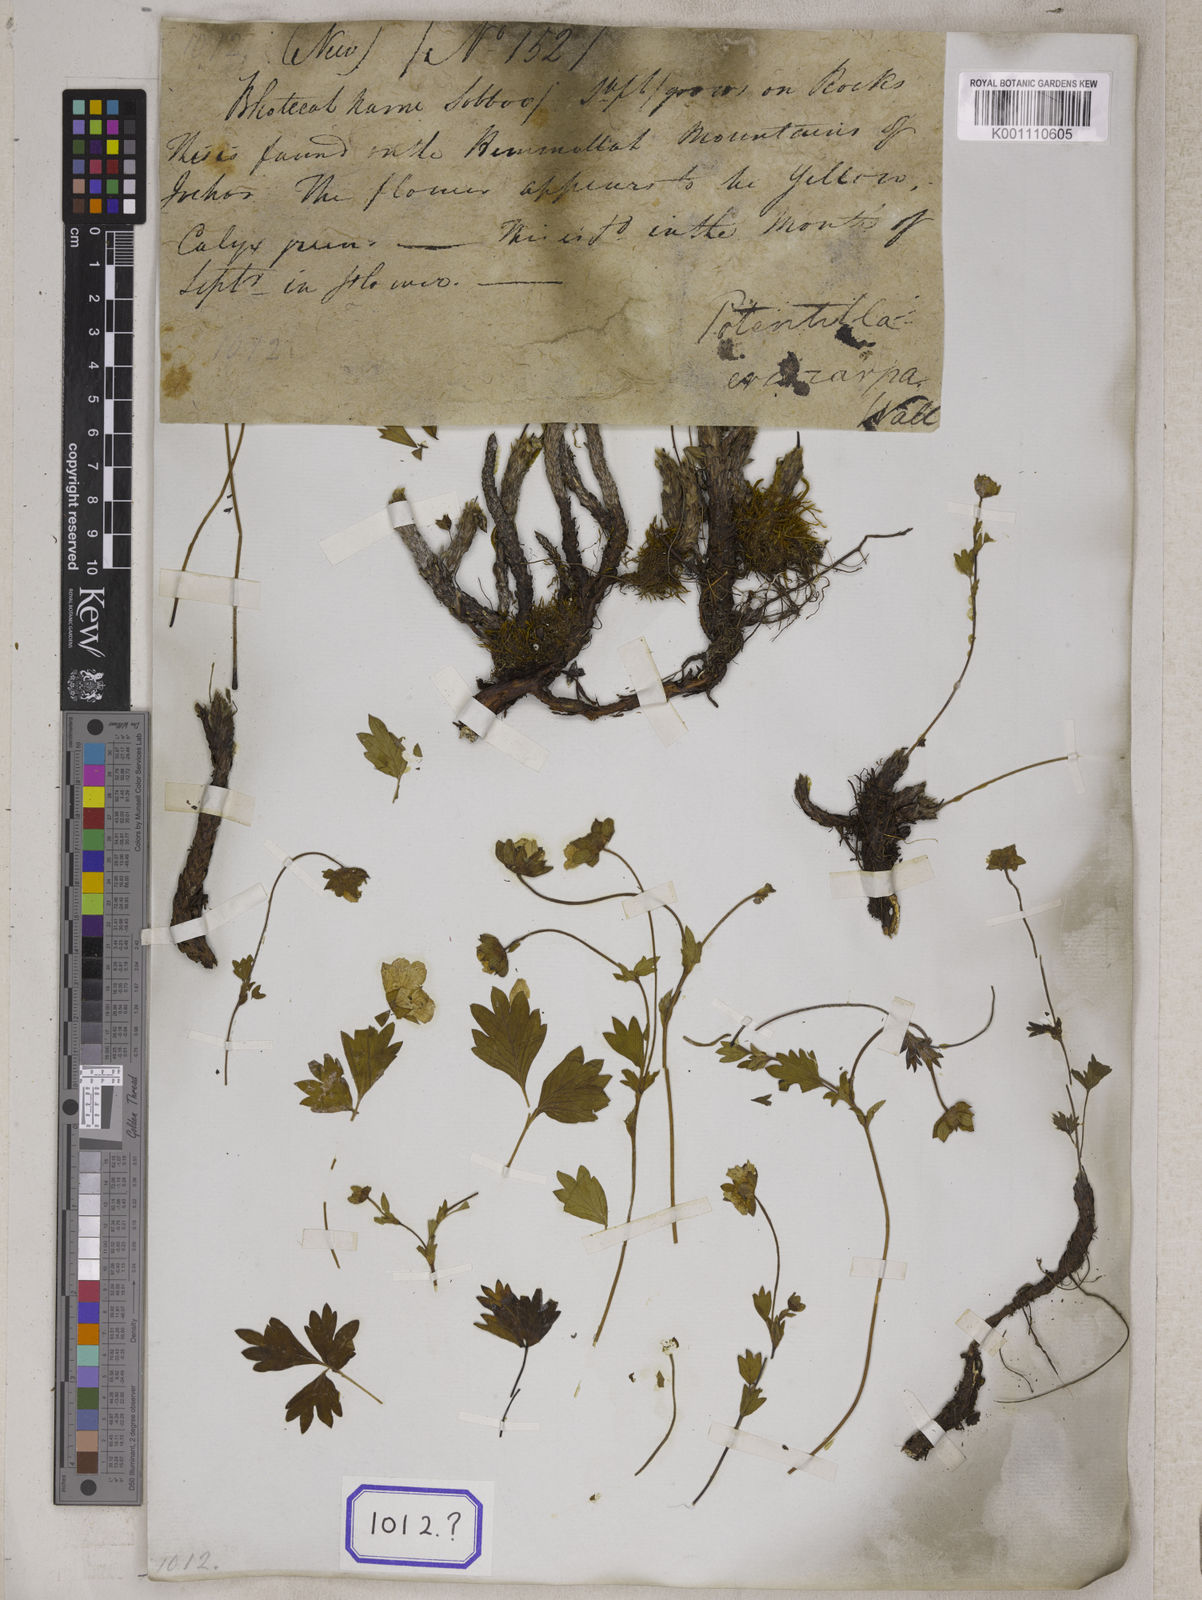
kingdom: Plantae
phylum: Tracheophyta
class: Magnoliopsida
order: Rosales
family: Rosaceae
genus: Potentilla
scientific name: Potentilla
